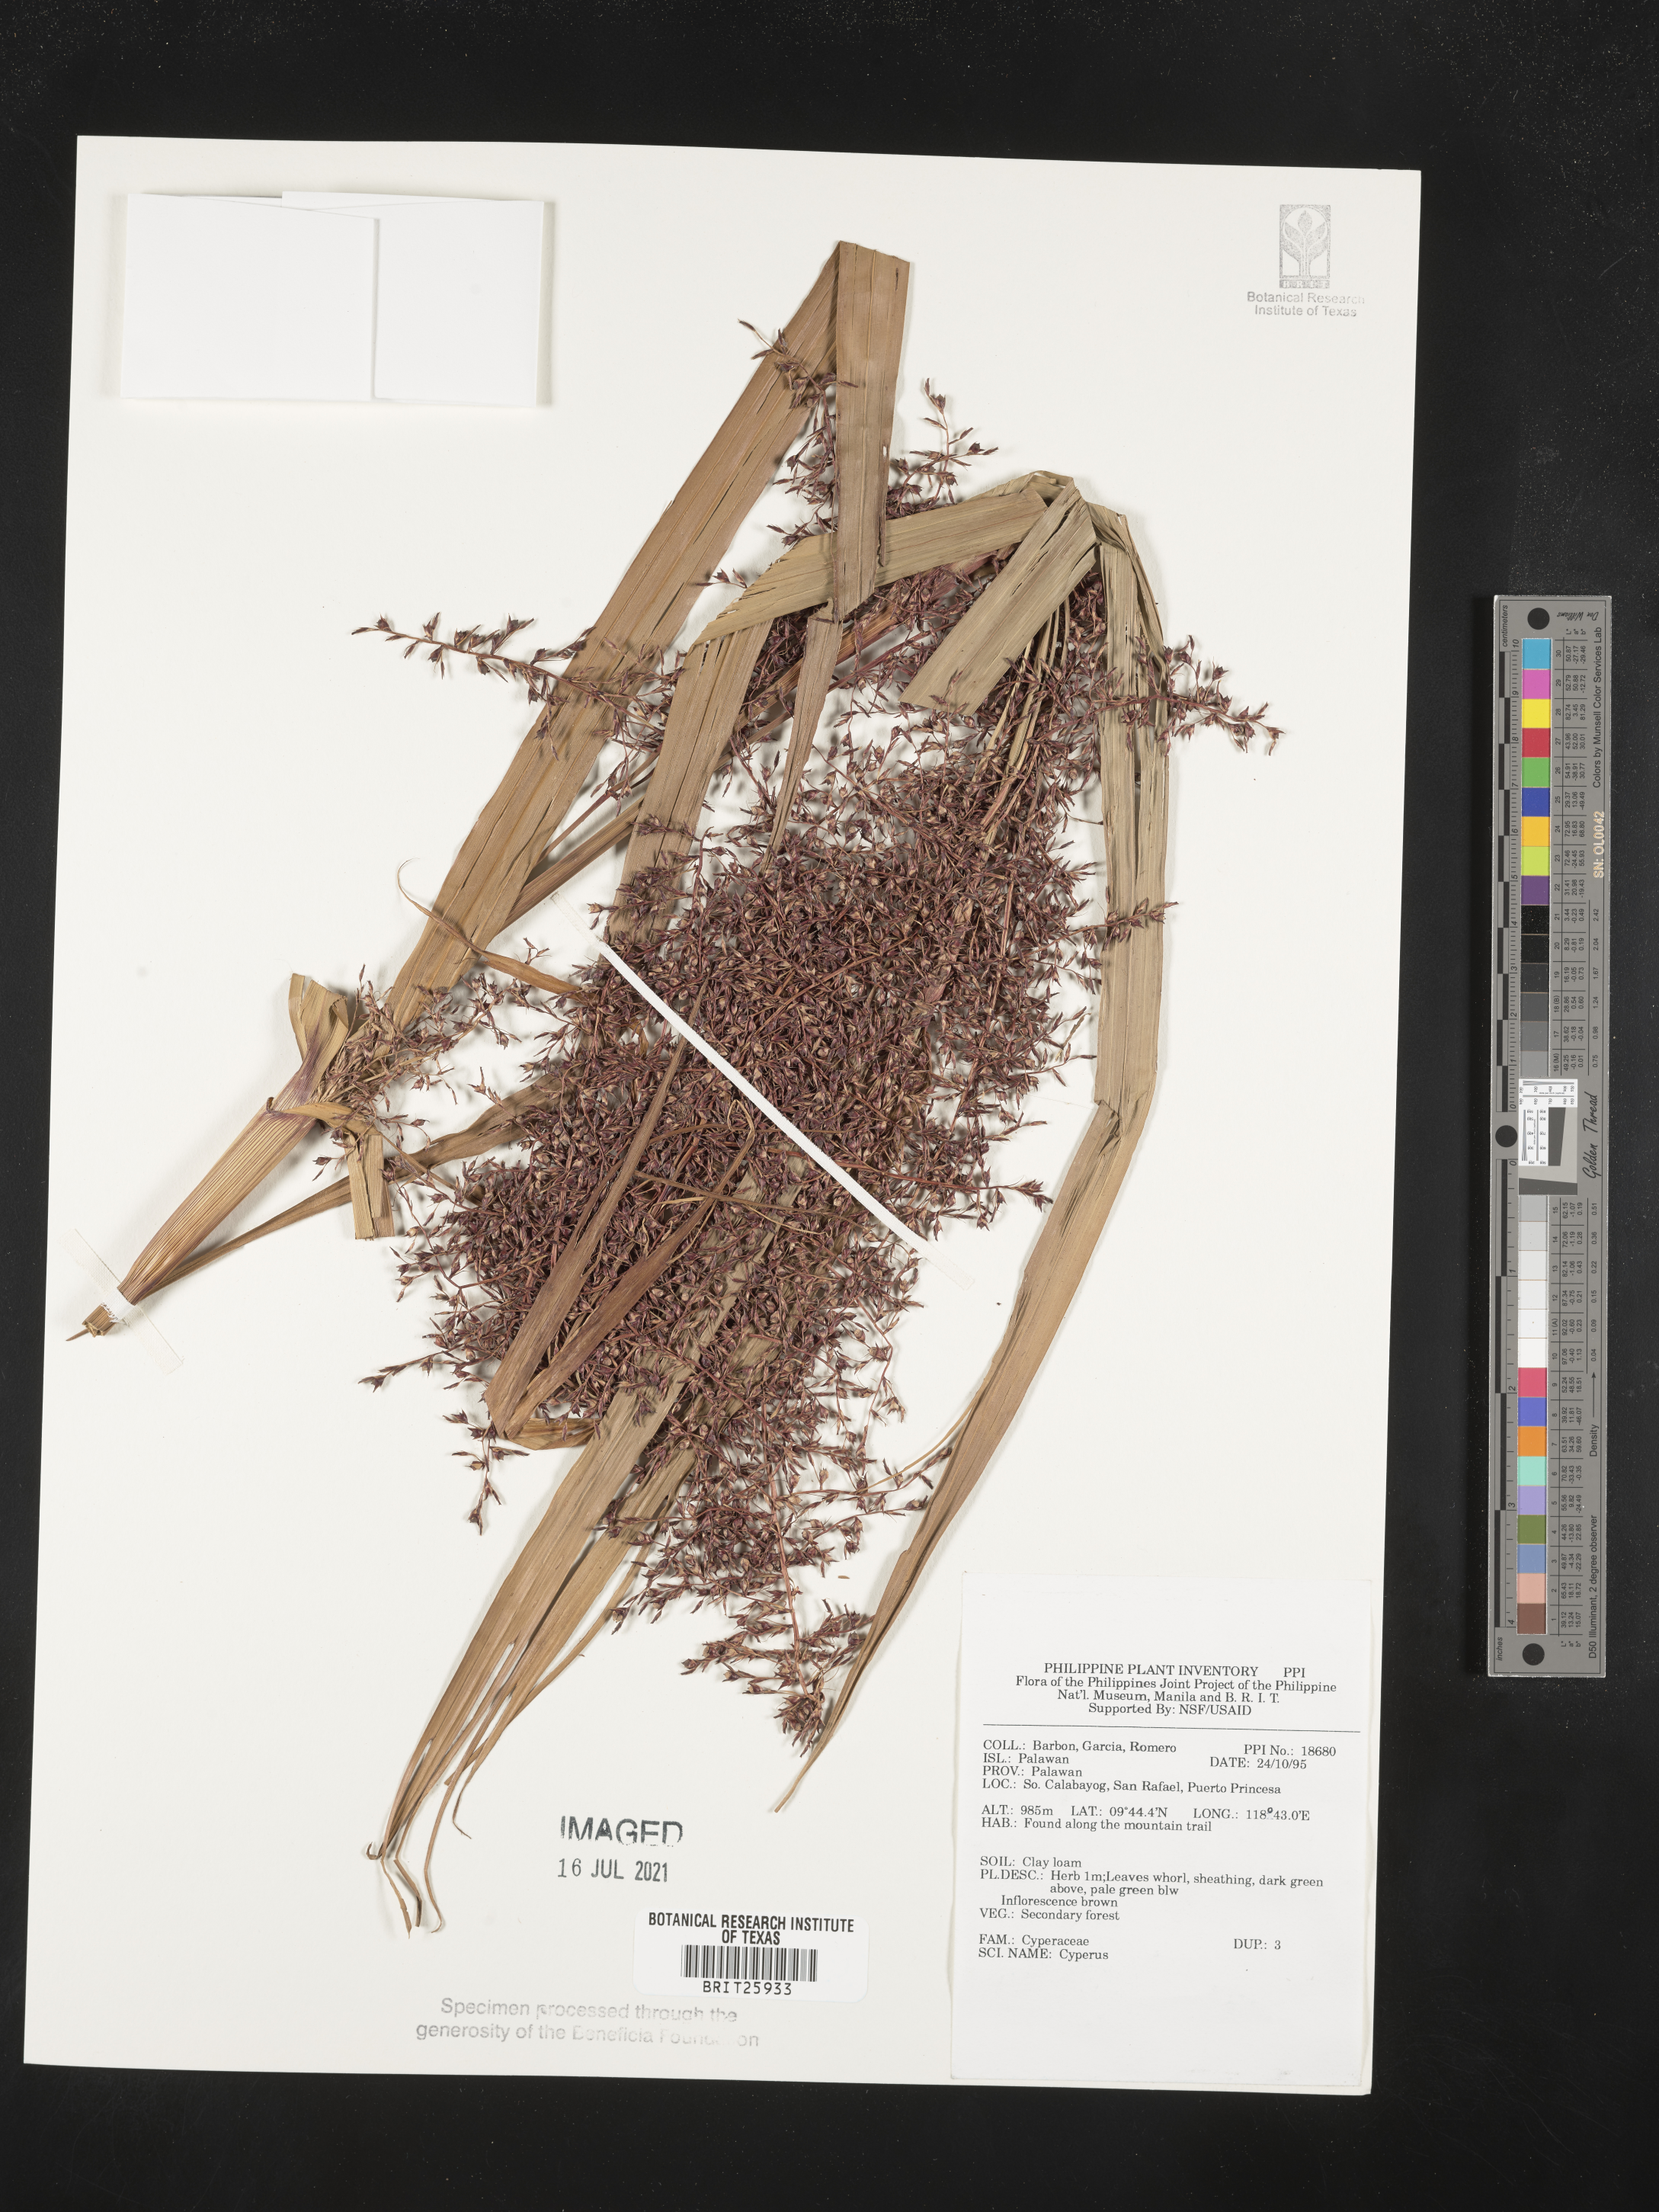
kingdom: Plantae
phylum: Tracheophyta
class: Liliopsida
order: Poales
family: Cyperaceae
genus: Cyperus
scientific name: Cyperus
